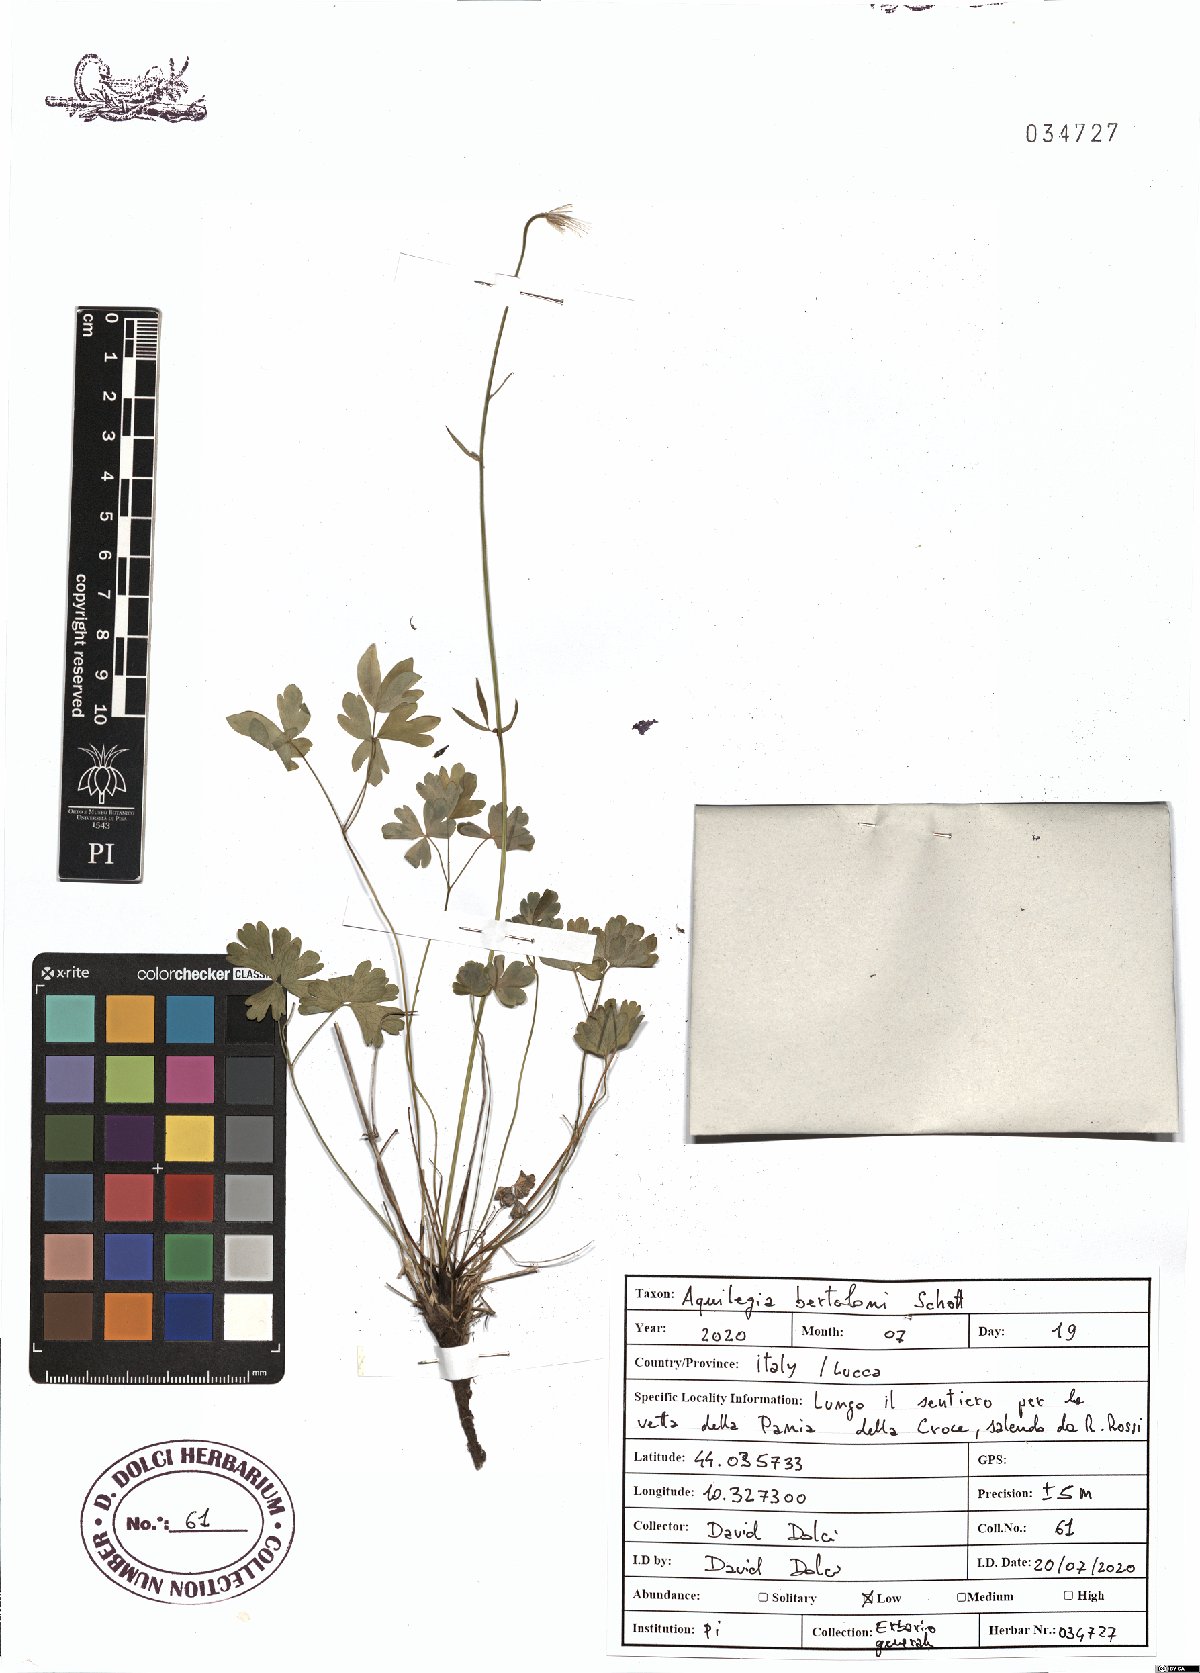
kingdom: Plantae
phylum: Tracheophyta
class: Magnoliopsida
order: Ranunculales
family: Ranunculaceae
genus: Aquilegia
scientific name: Aquilegia bertolonii
